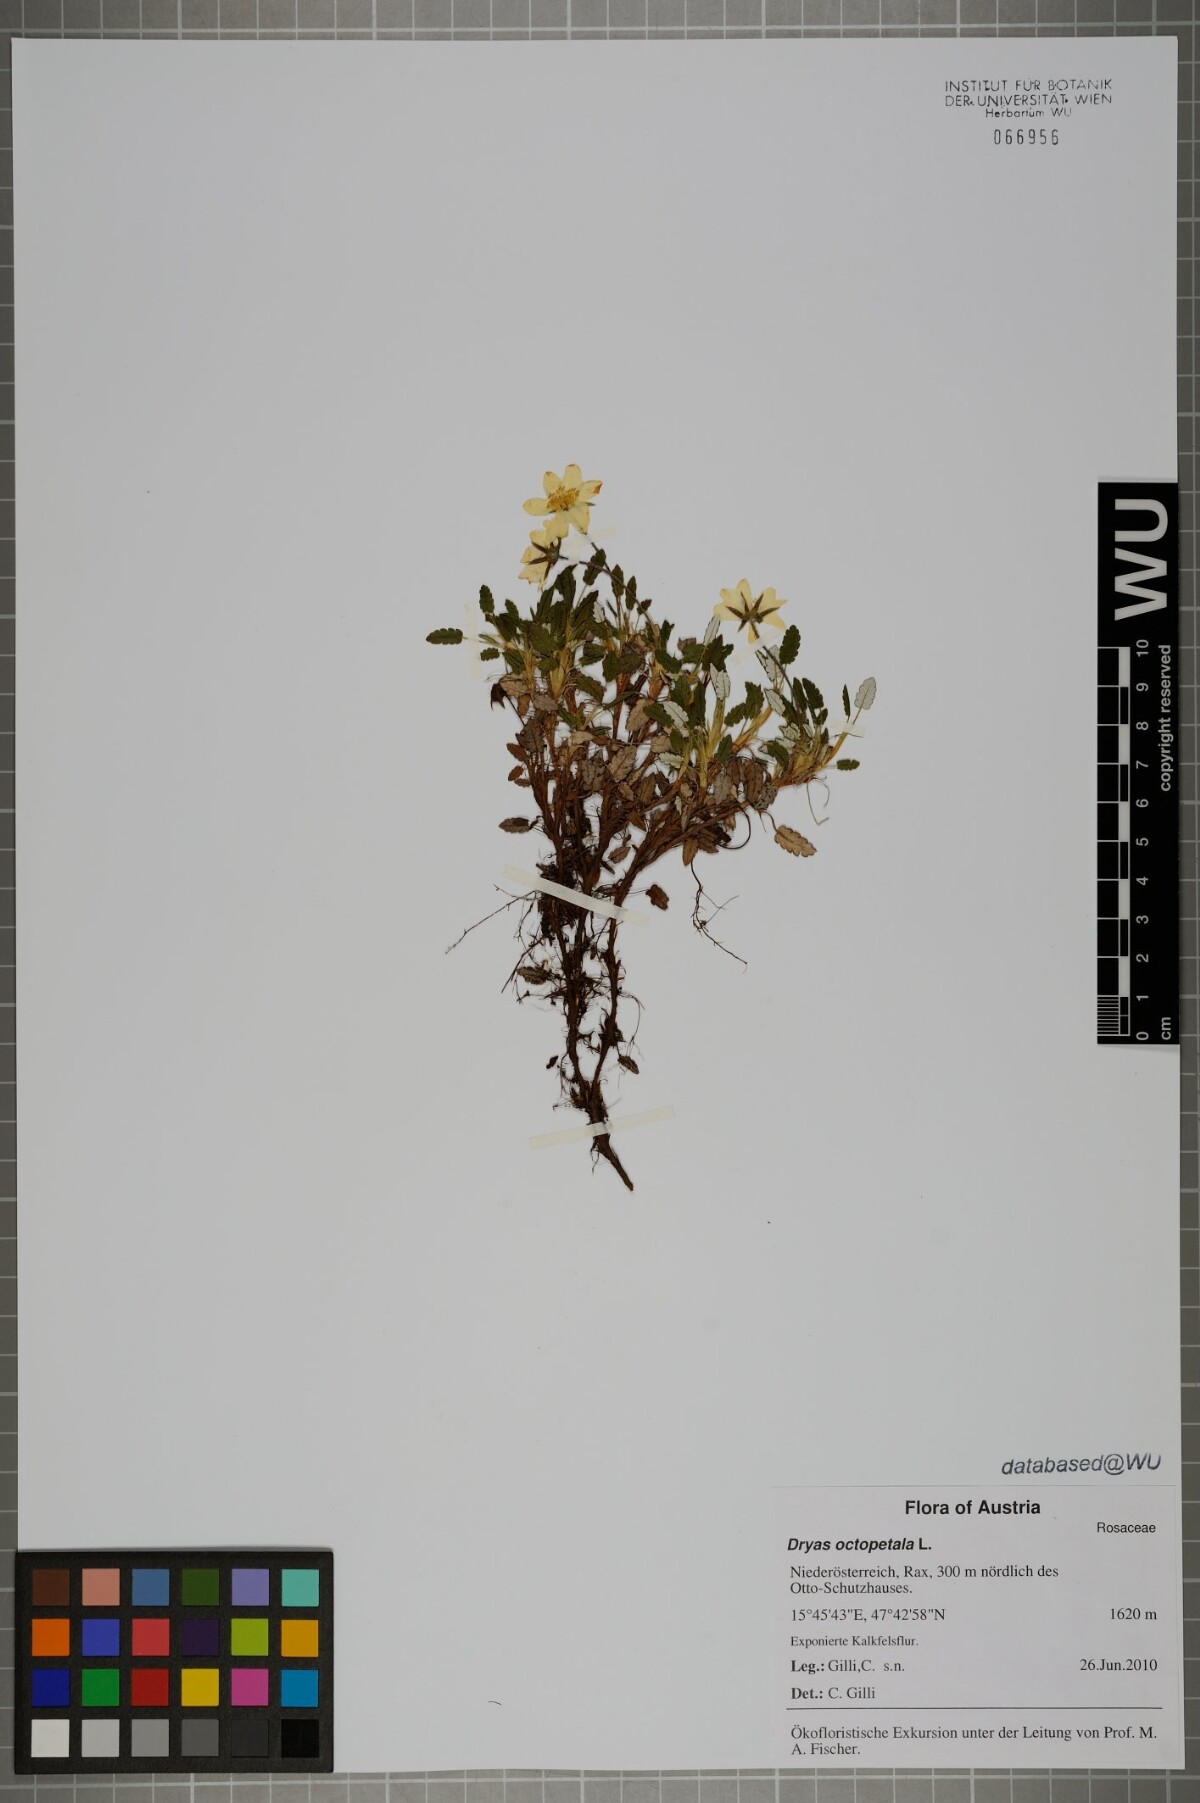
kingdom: Plantae
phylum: Tracheophyta
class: Magnoliopsida
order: Rosales
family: Rosaceae
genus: Dryas
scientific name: Dryas octopetala
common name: Eight-petal mountain-avens
